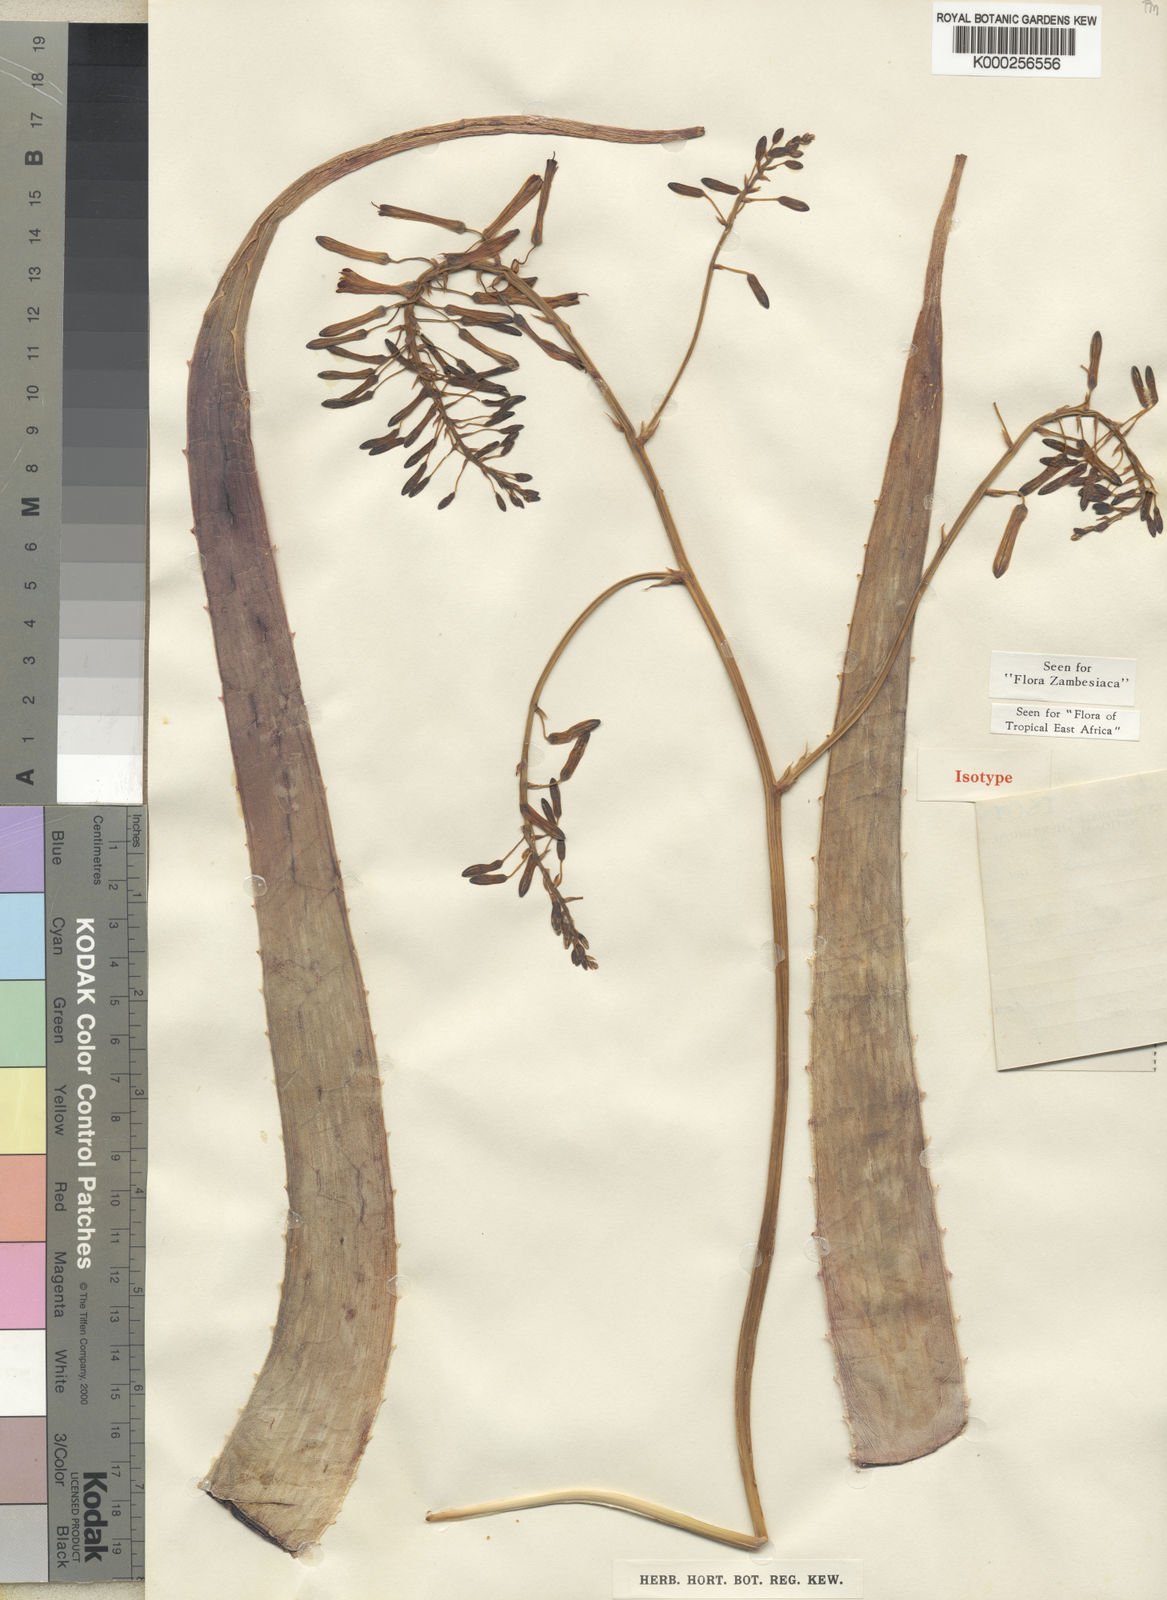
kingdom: Plantae
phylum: Tracheophyta
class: Liliopsida
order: Asparagales
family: Asphodelaceae
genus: Aloe
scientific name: Aloe veseyi
